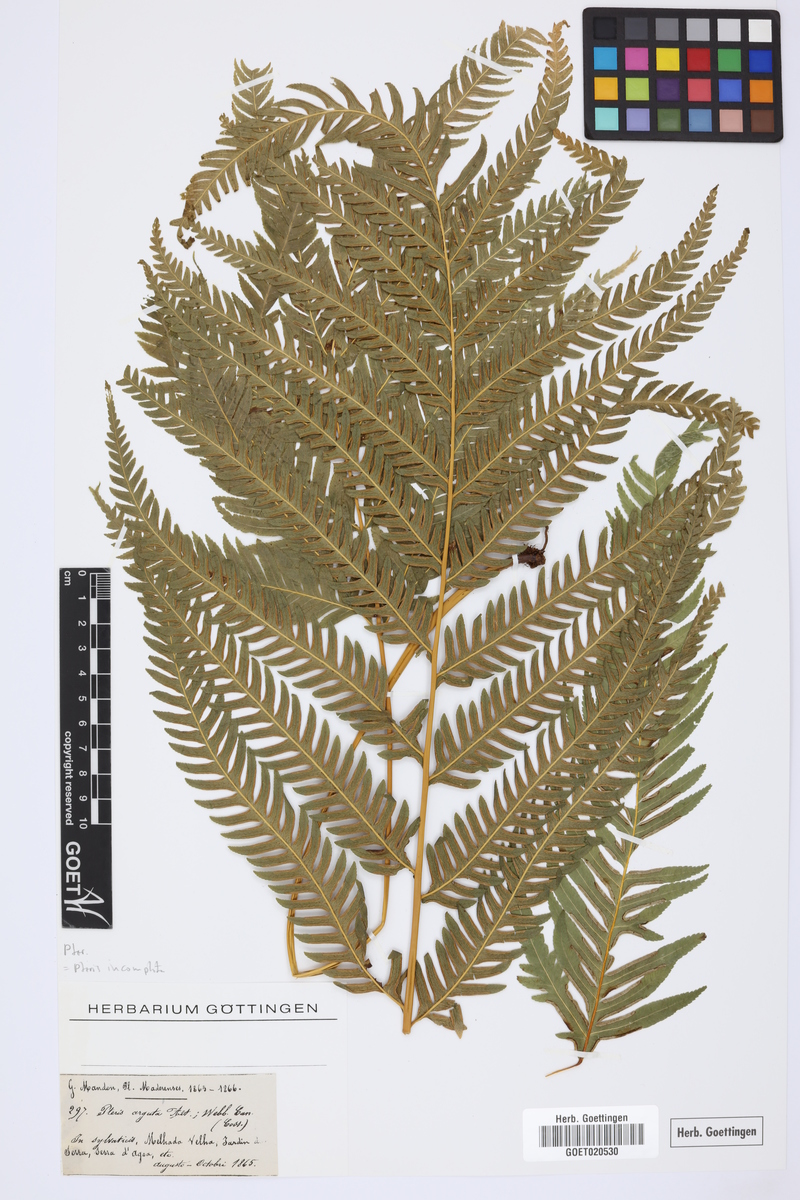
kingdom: Plantae
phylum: Tracheophyta
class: Polypodiopsida
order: Polypodiales
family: Pteridaceae
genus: Pteris
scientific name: Pteris incompleta
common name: Laurisilva brake
